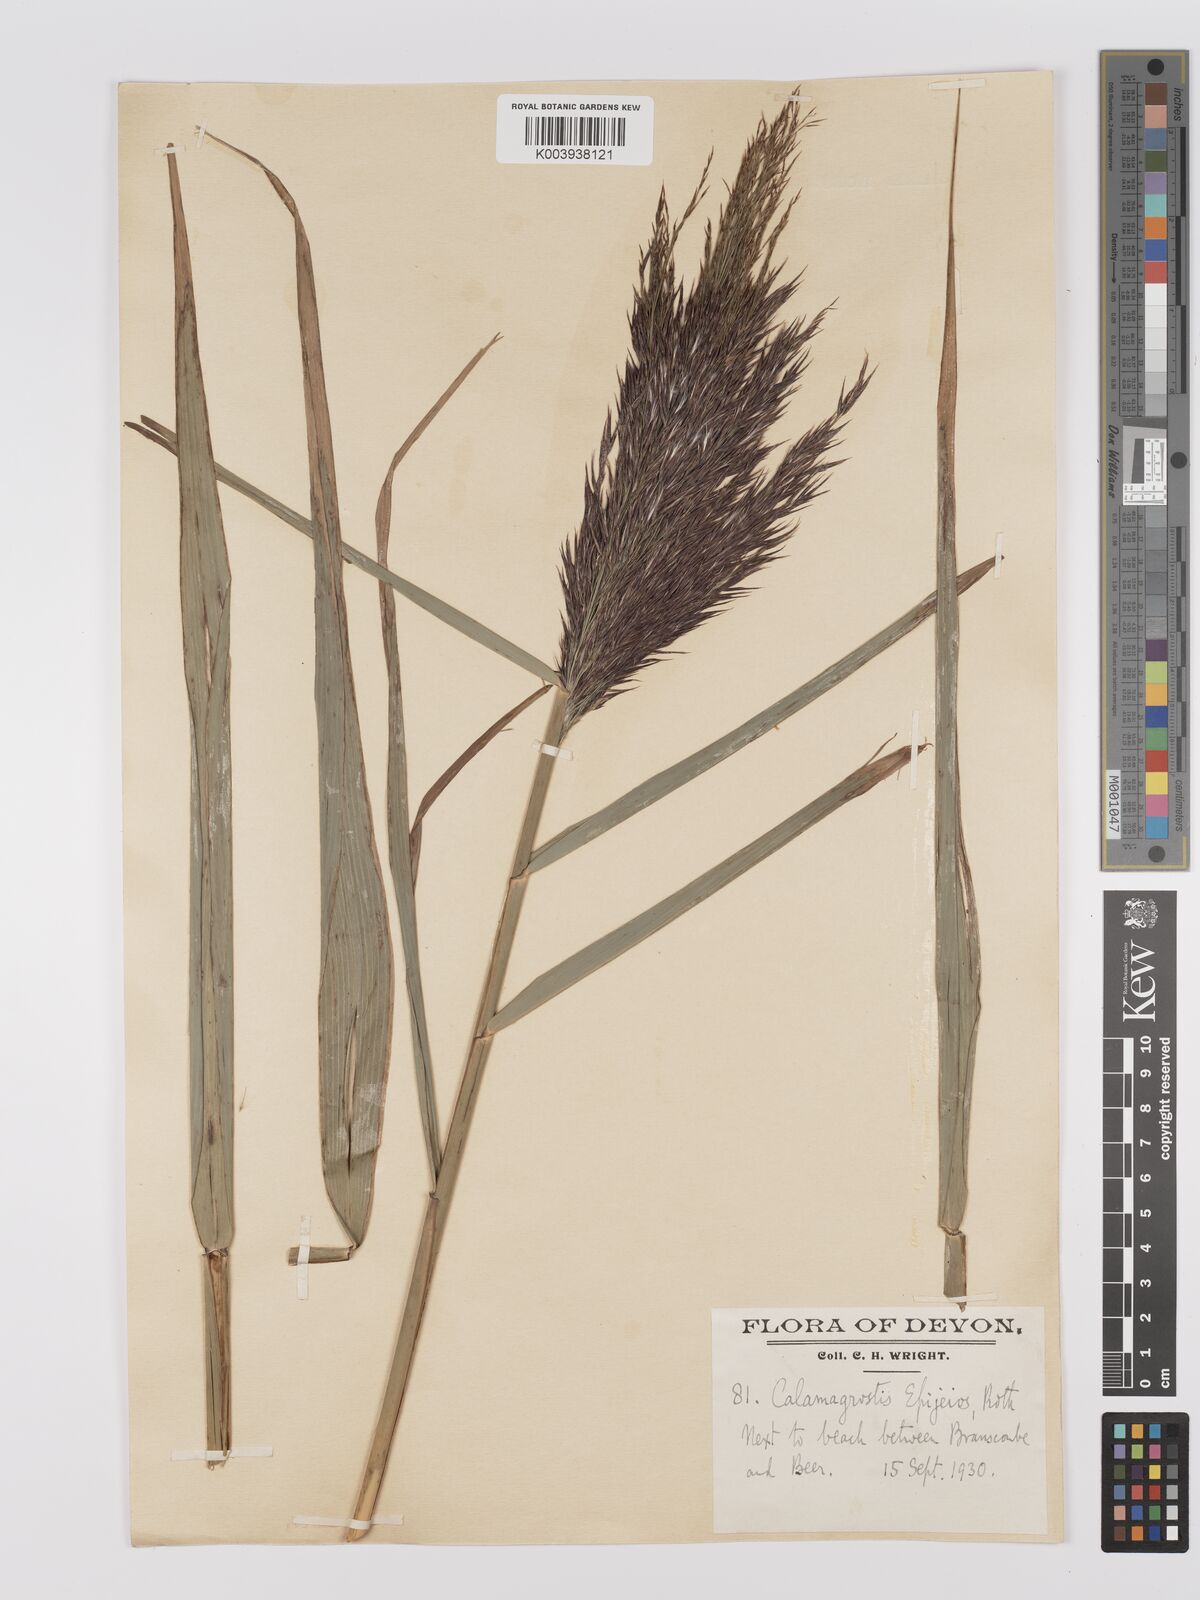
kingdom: Plantae
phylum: Tracheophyta
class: Liliopsida
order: Poales
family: Poaceae
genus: Phragmites
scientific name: Phragmites australis
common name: Common reed
